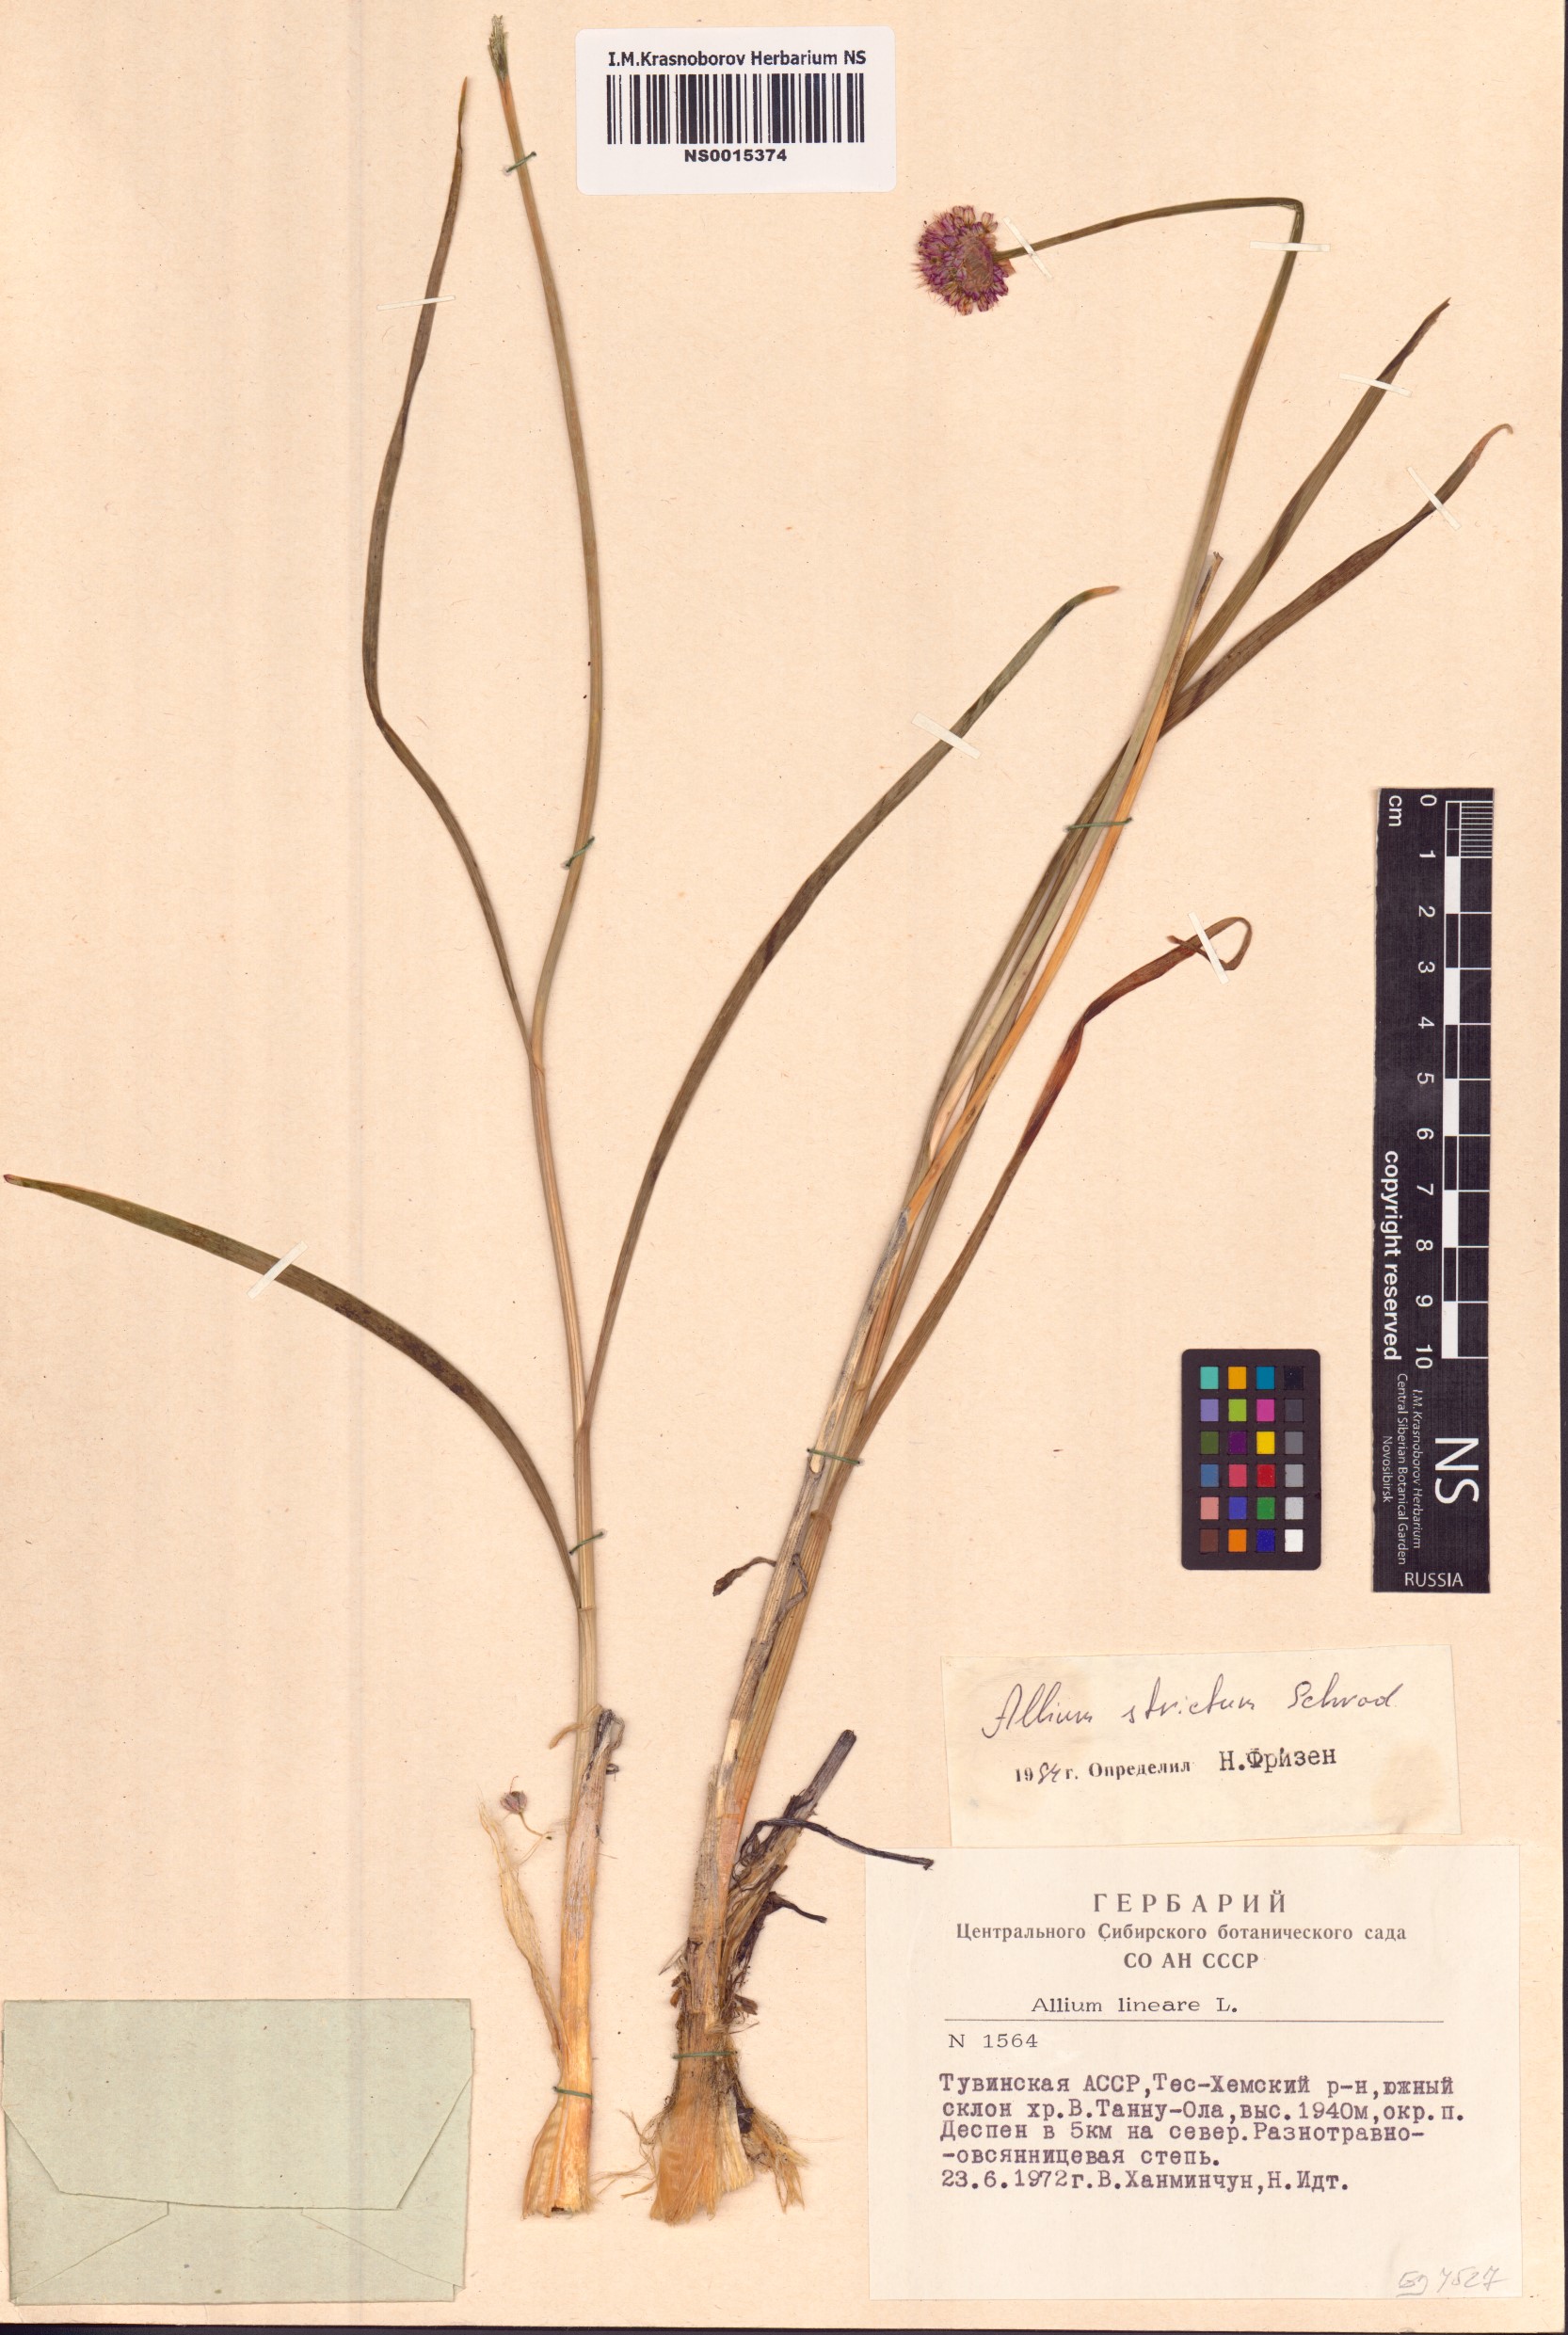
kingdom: Plantae
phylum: Tracheophyta
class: Liliopsida
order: Asparagales
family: Amaryllidaceae
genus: Allium
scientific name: Allium strictum
